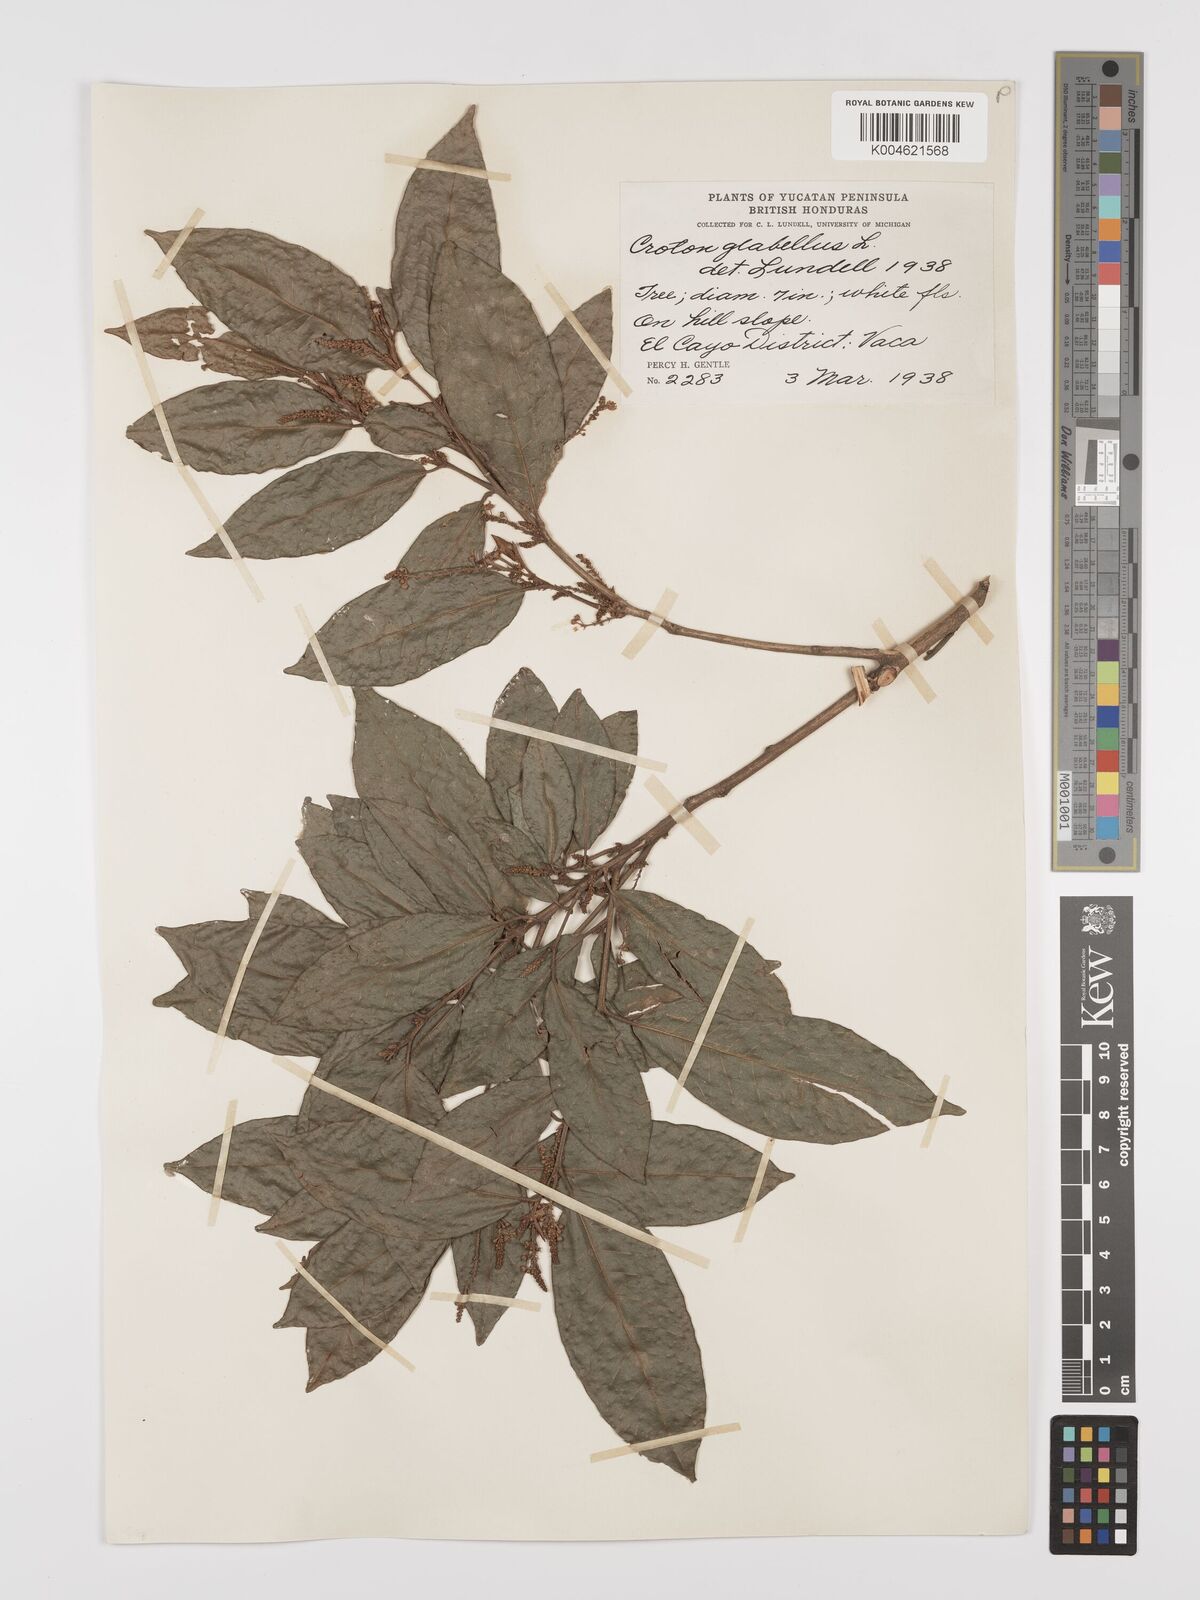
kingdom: Plantae
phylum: Tracheophyta
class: Magnoliopsida
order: Malpighiales
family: Euphorbiaceae
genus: Croton
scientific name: Croton glabellus
